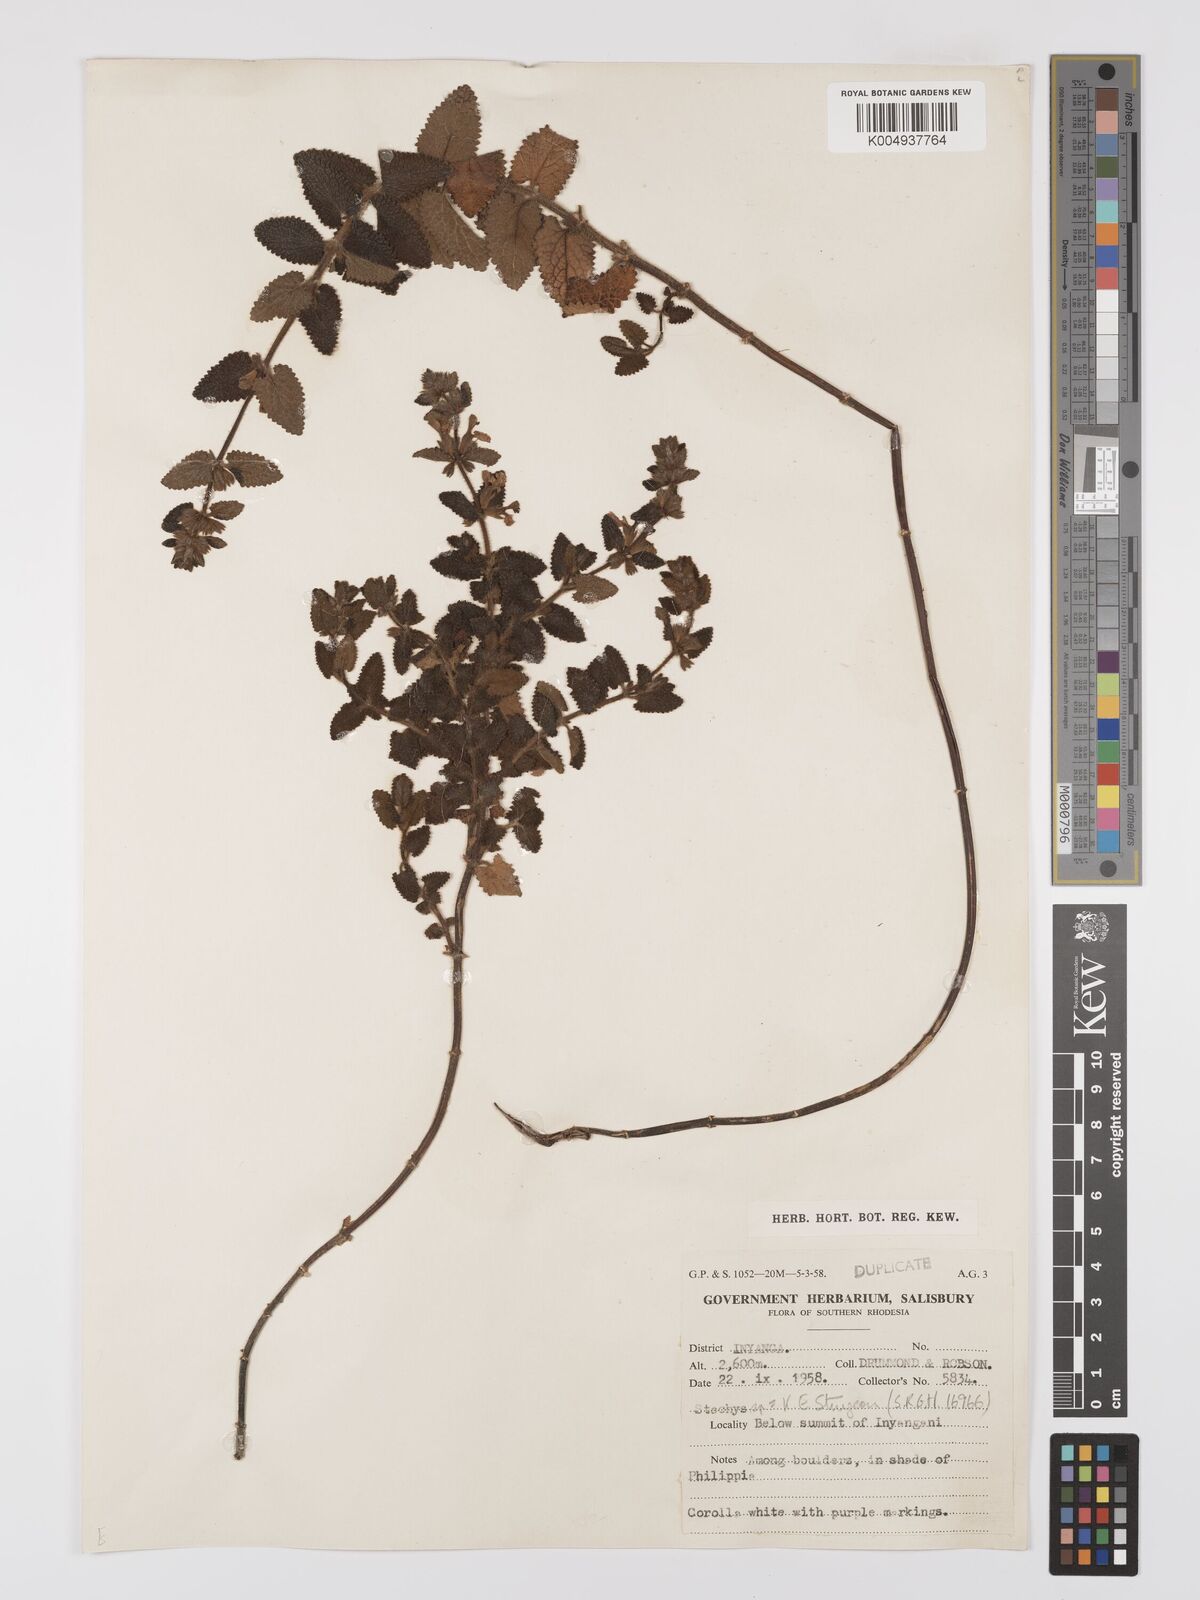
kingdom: Plantae
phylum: Tracheophyta
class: Magnoliopsida
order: Lamiales
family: Lamiaceae
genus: Stachys
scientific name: Stachys aethiopica
